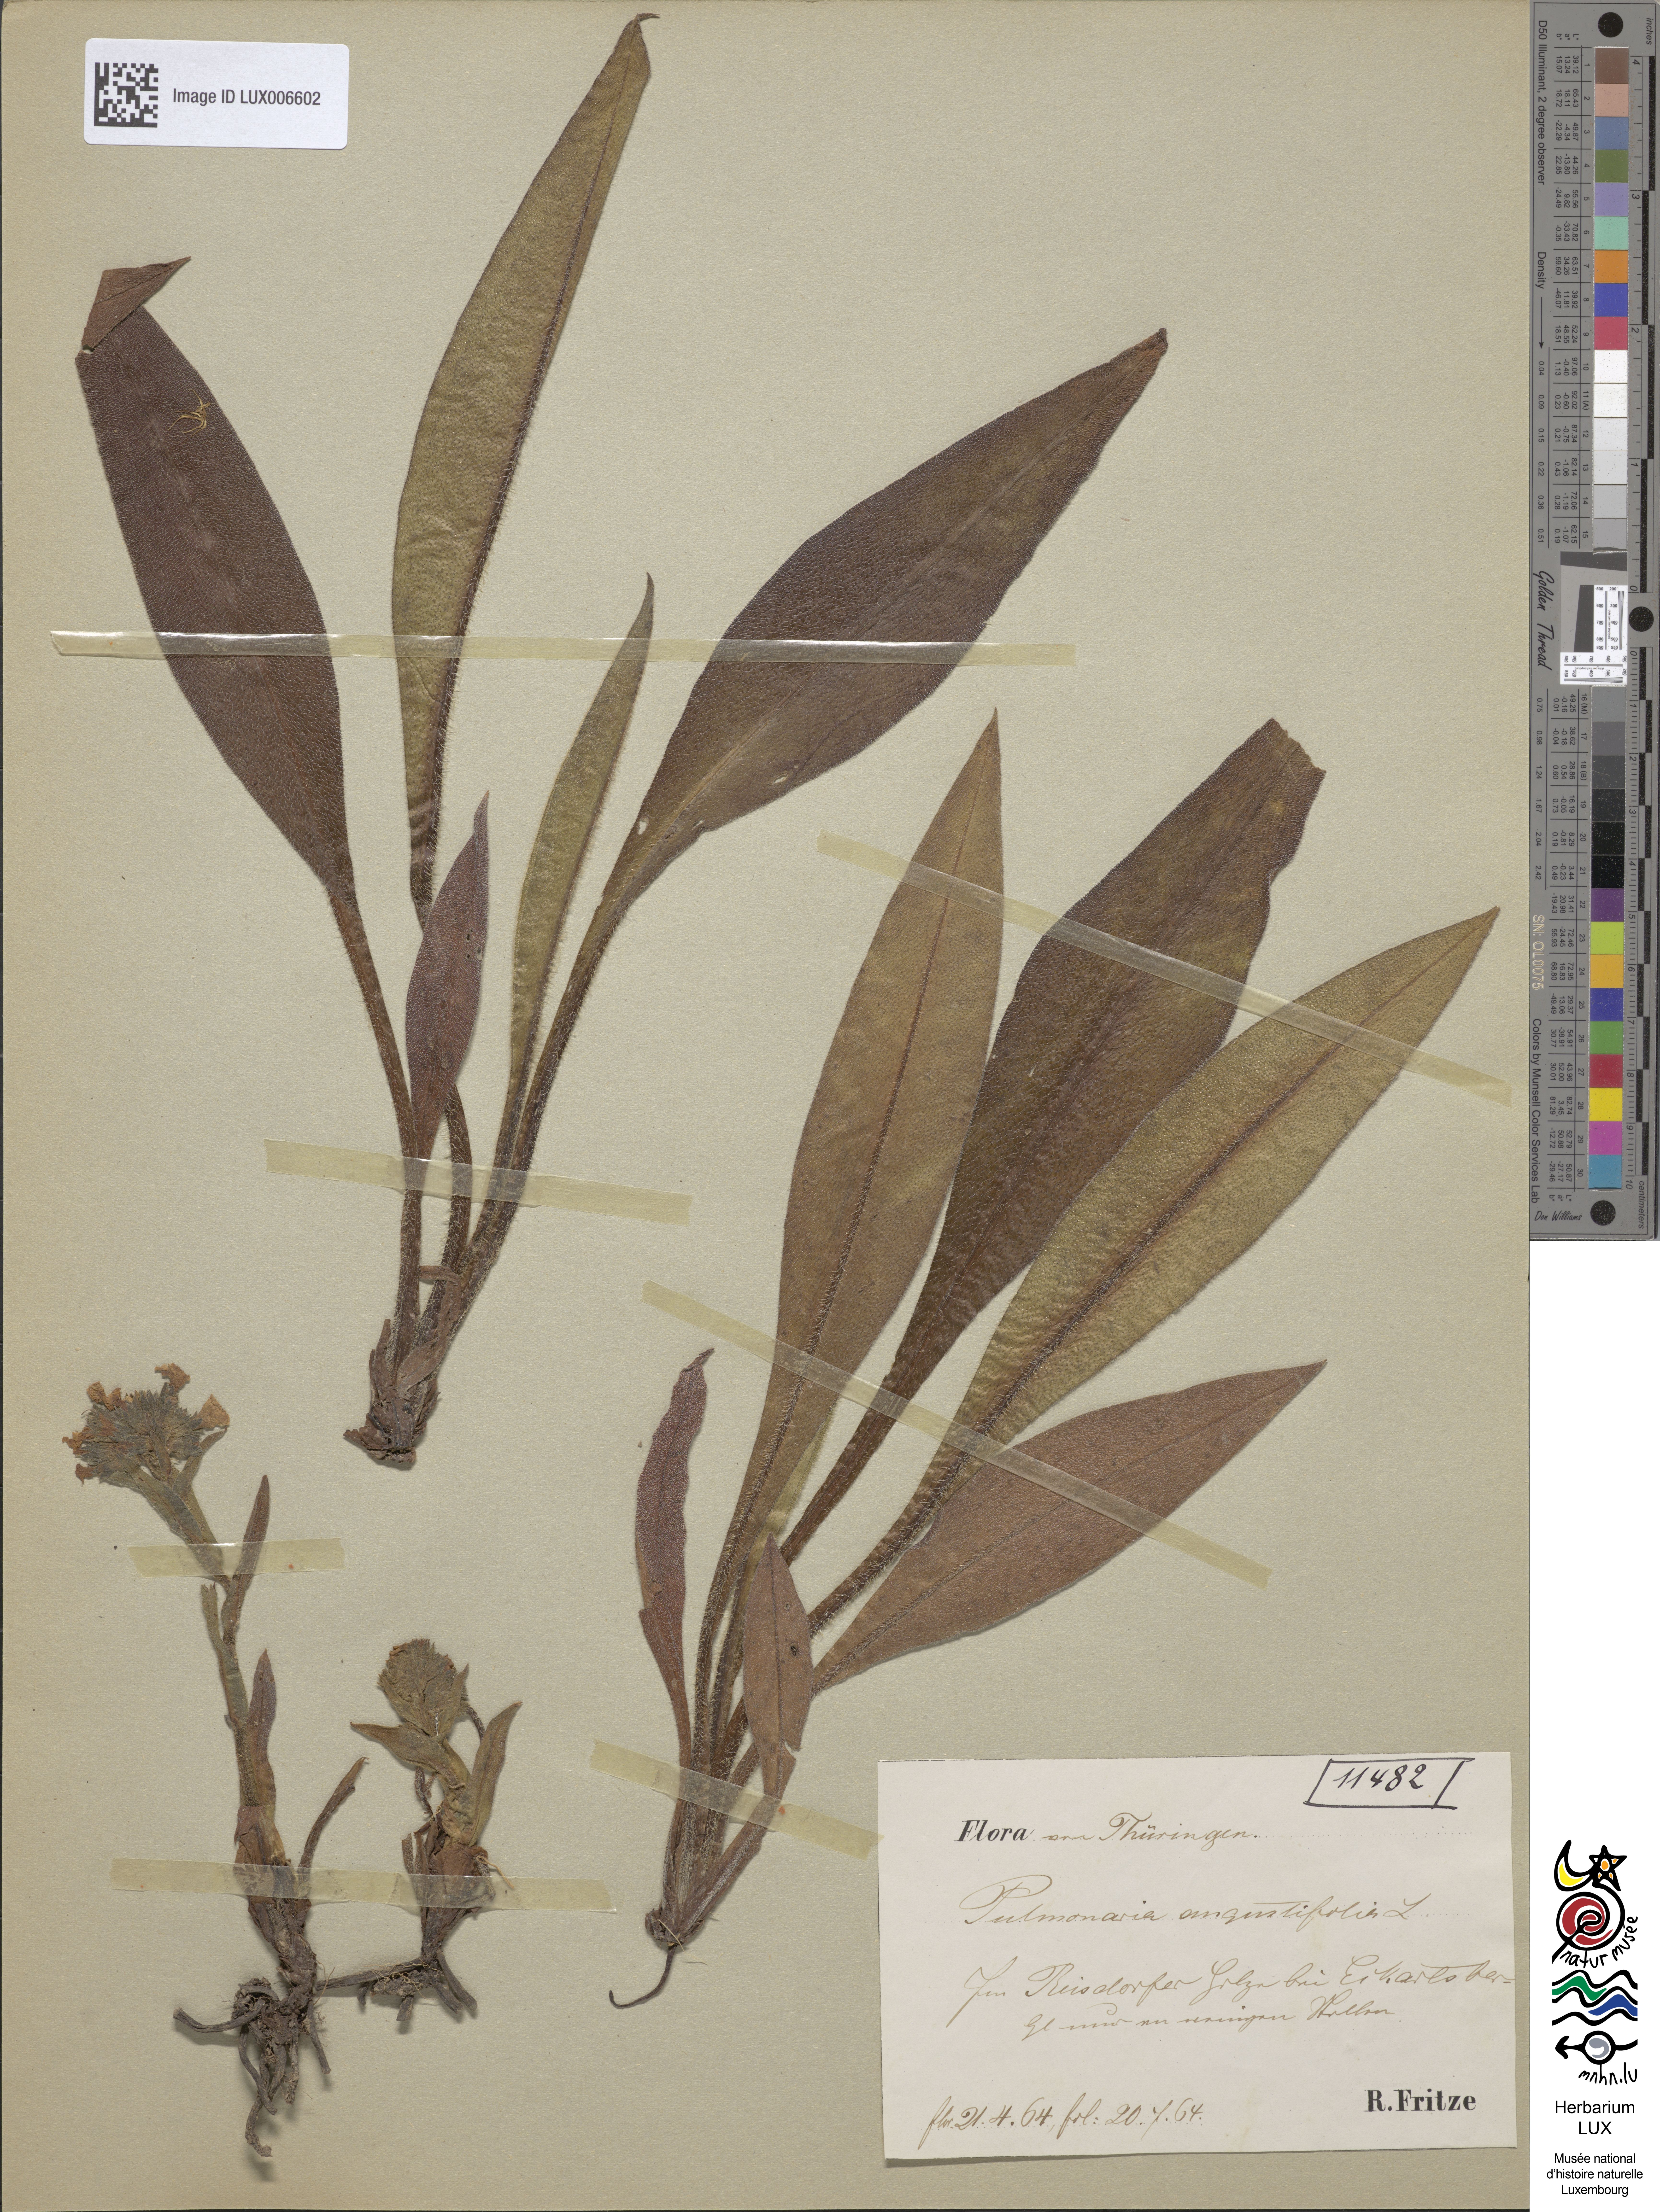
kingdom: Plantae
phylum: Tracheophyta
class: Magnoliopsida
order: Boraginales
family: Boraginaceae
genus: Pulmonaria
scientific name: Pulmonaria angustifolia
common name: Blue cowslip
